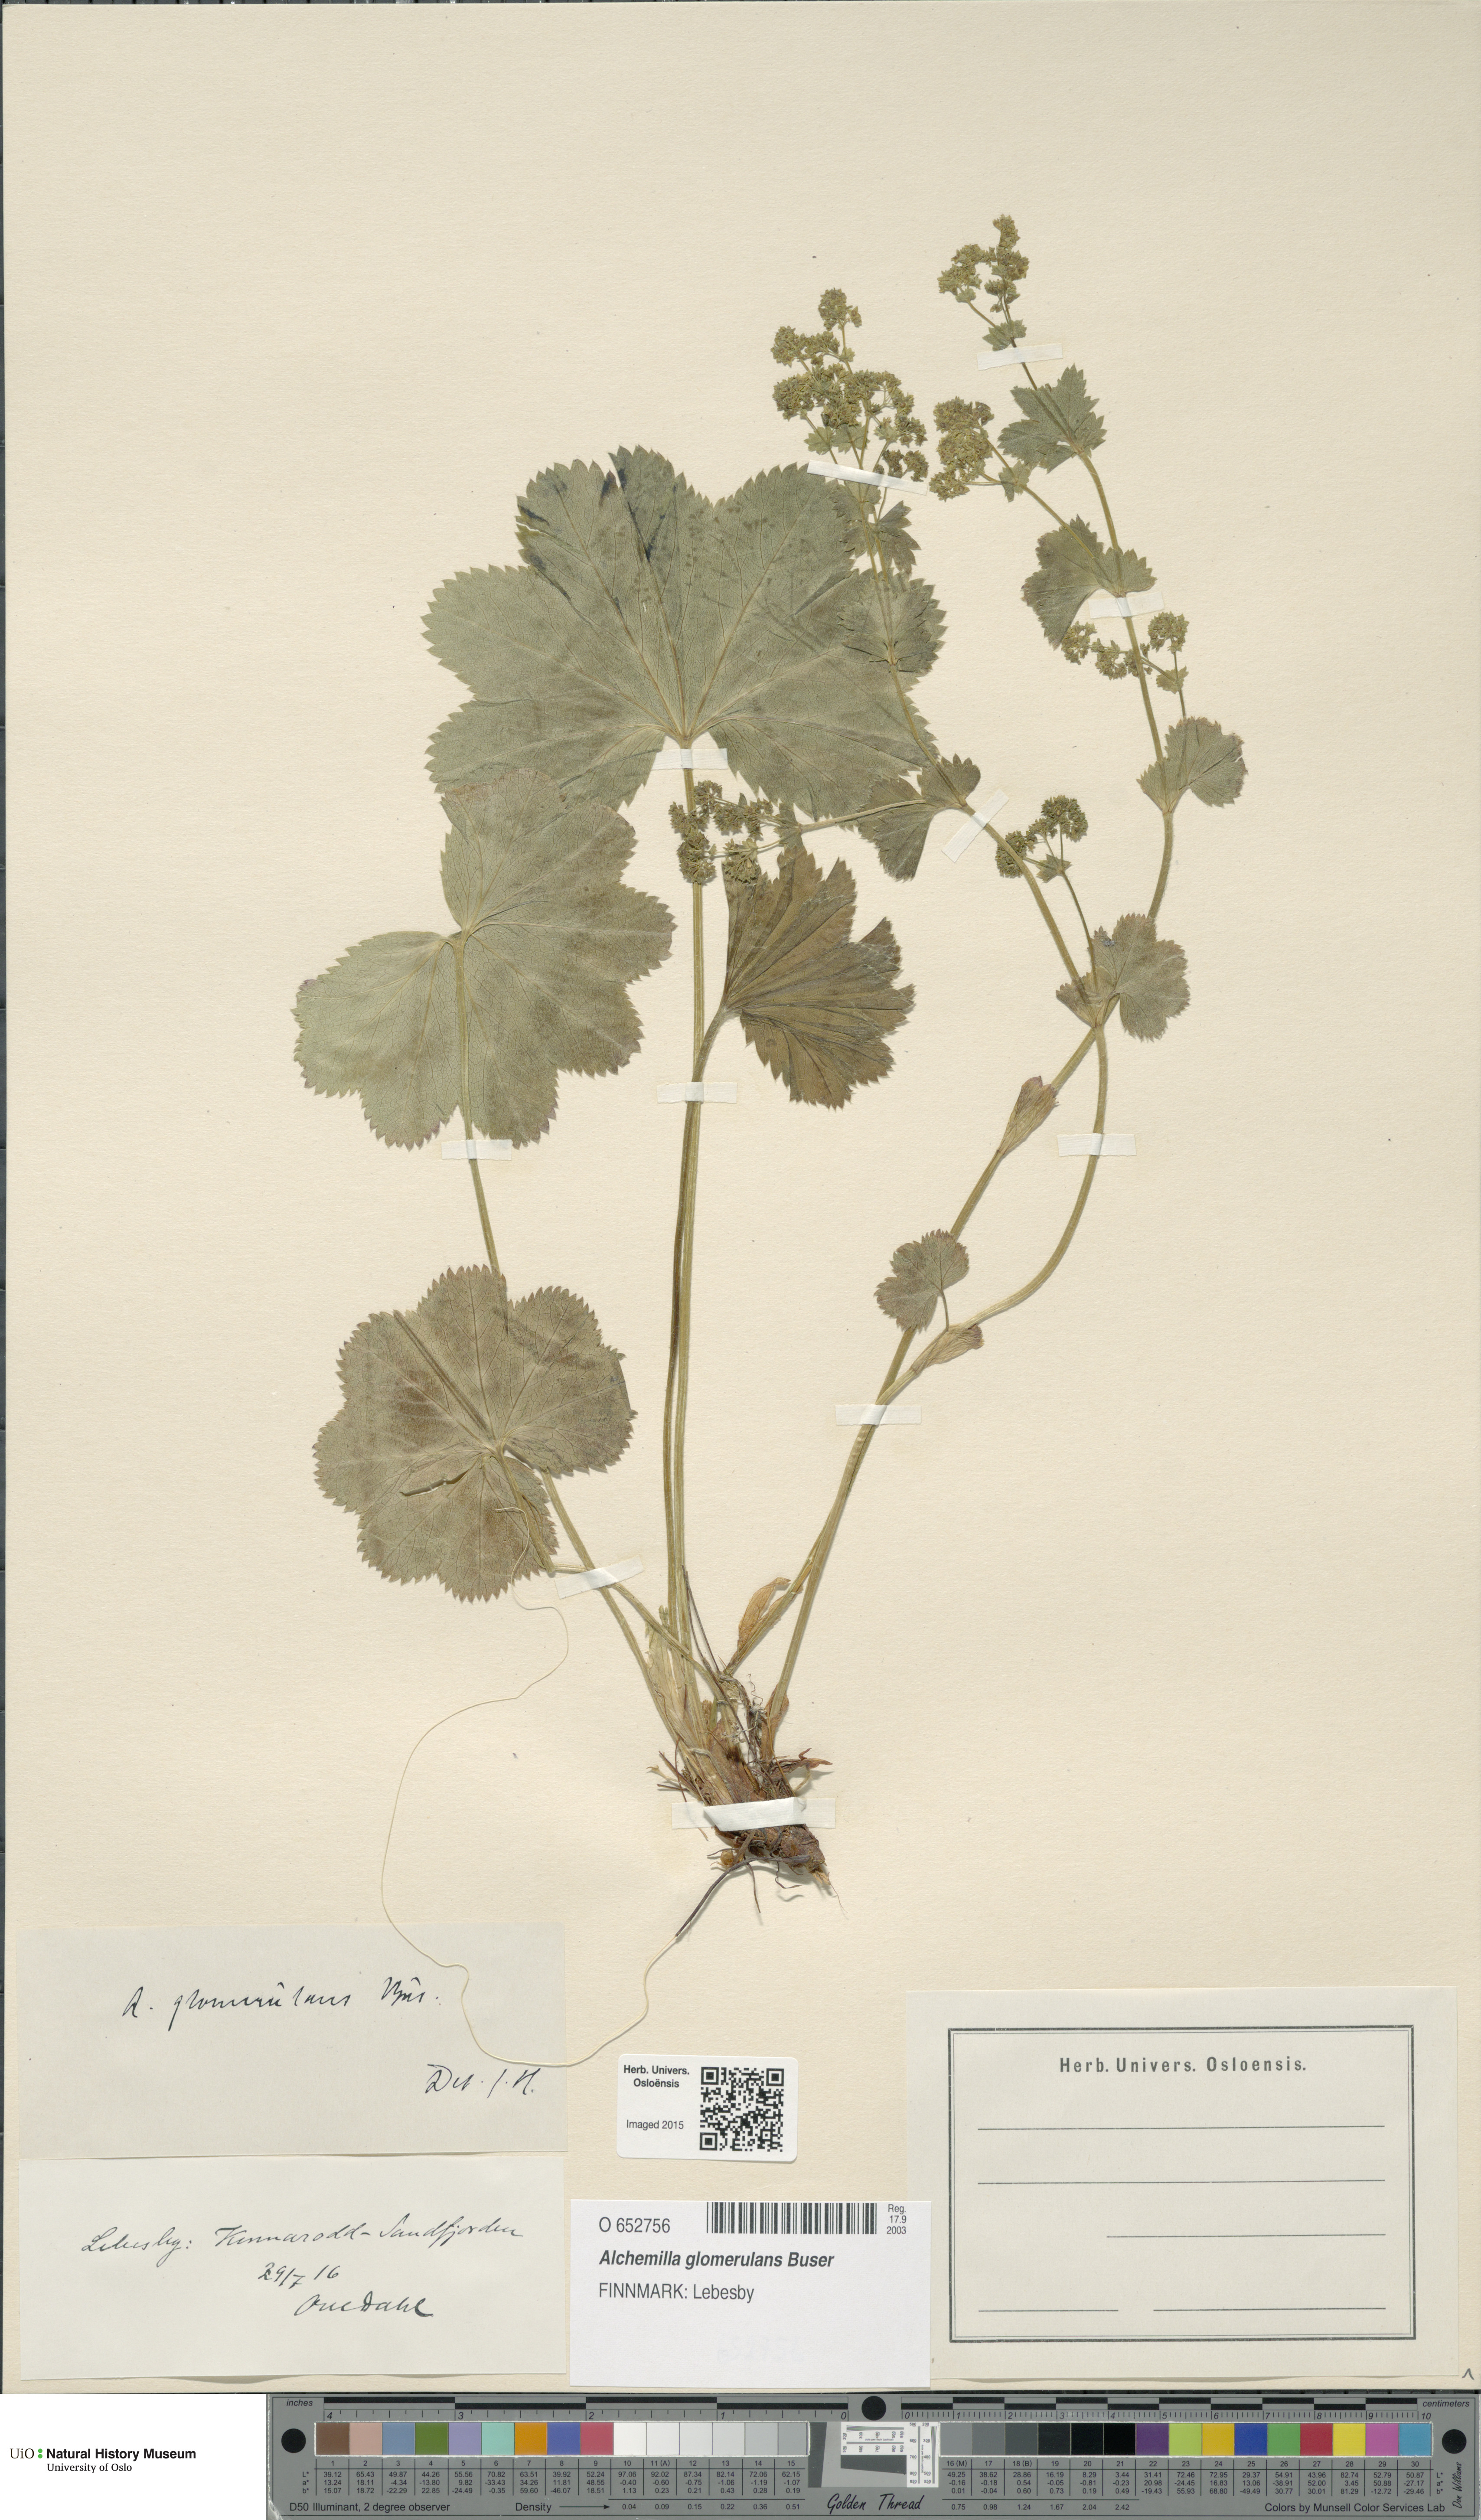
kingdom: Plantae
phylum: Tracheophyta
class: Magnoliopsida
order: Rosales
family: Rosaceae
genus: Alchemilla
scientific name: Alchemilla glomerulans
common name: Clustered lady's mantle
